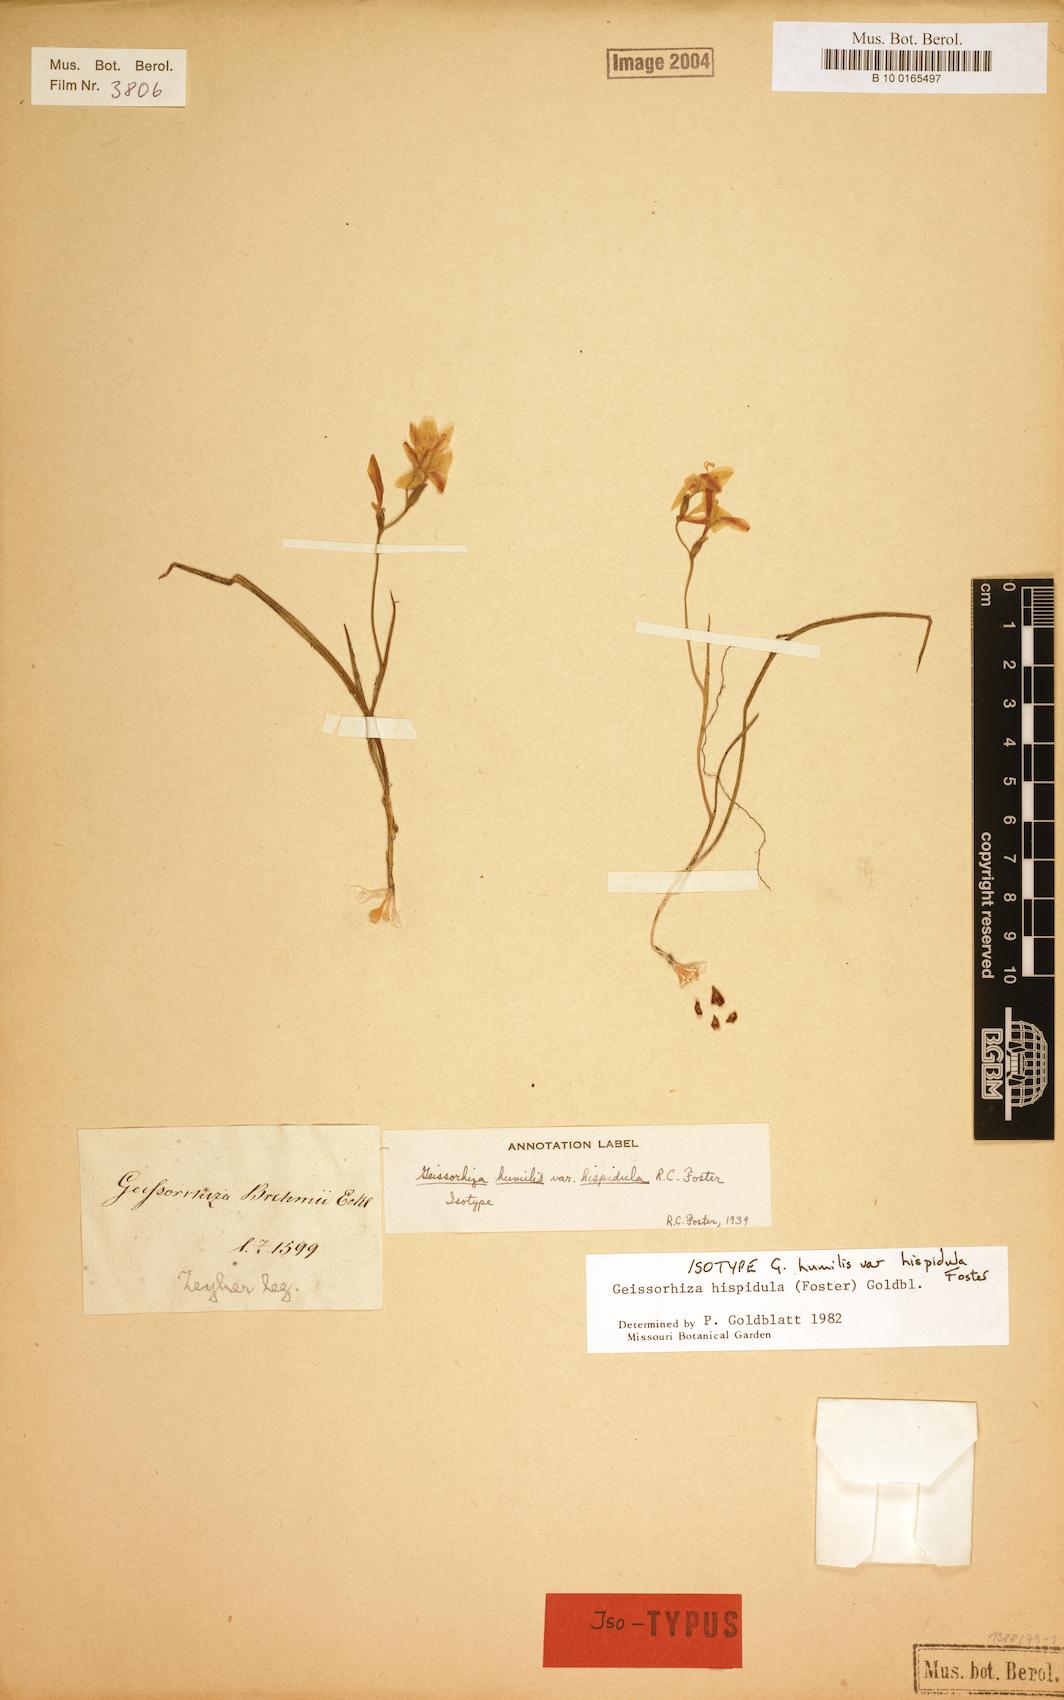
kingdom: Plantae
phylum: Tracheophyta
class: Liliopsida
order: Asparagales
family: Iridaceae
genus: Geissorhiza
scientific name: Geissorhiza hispidula
